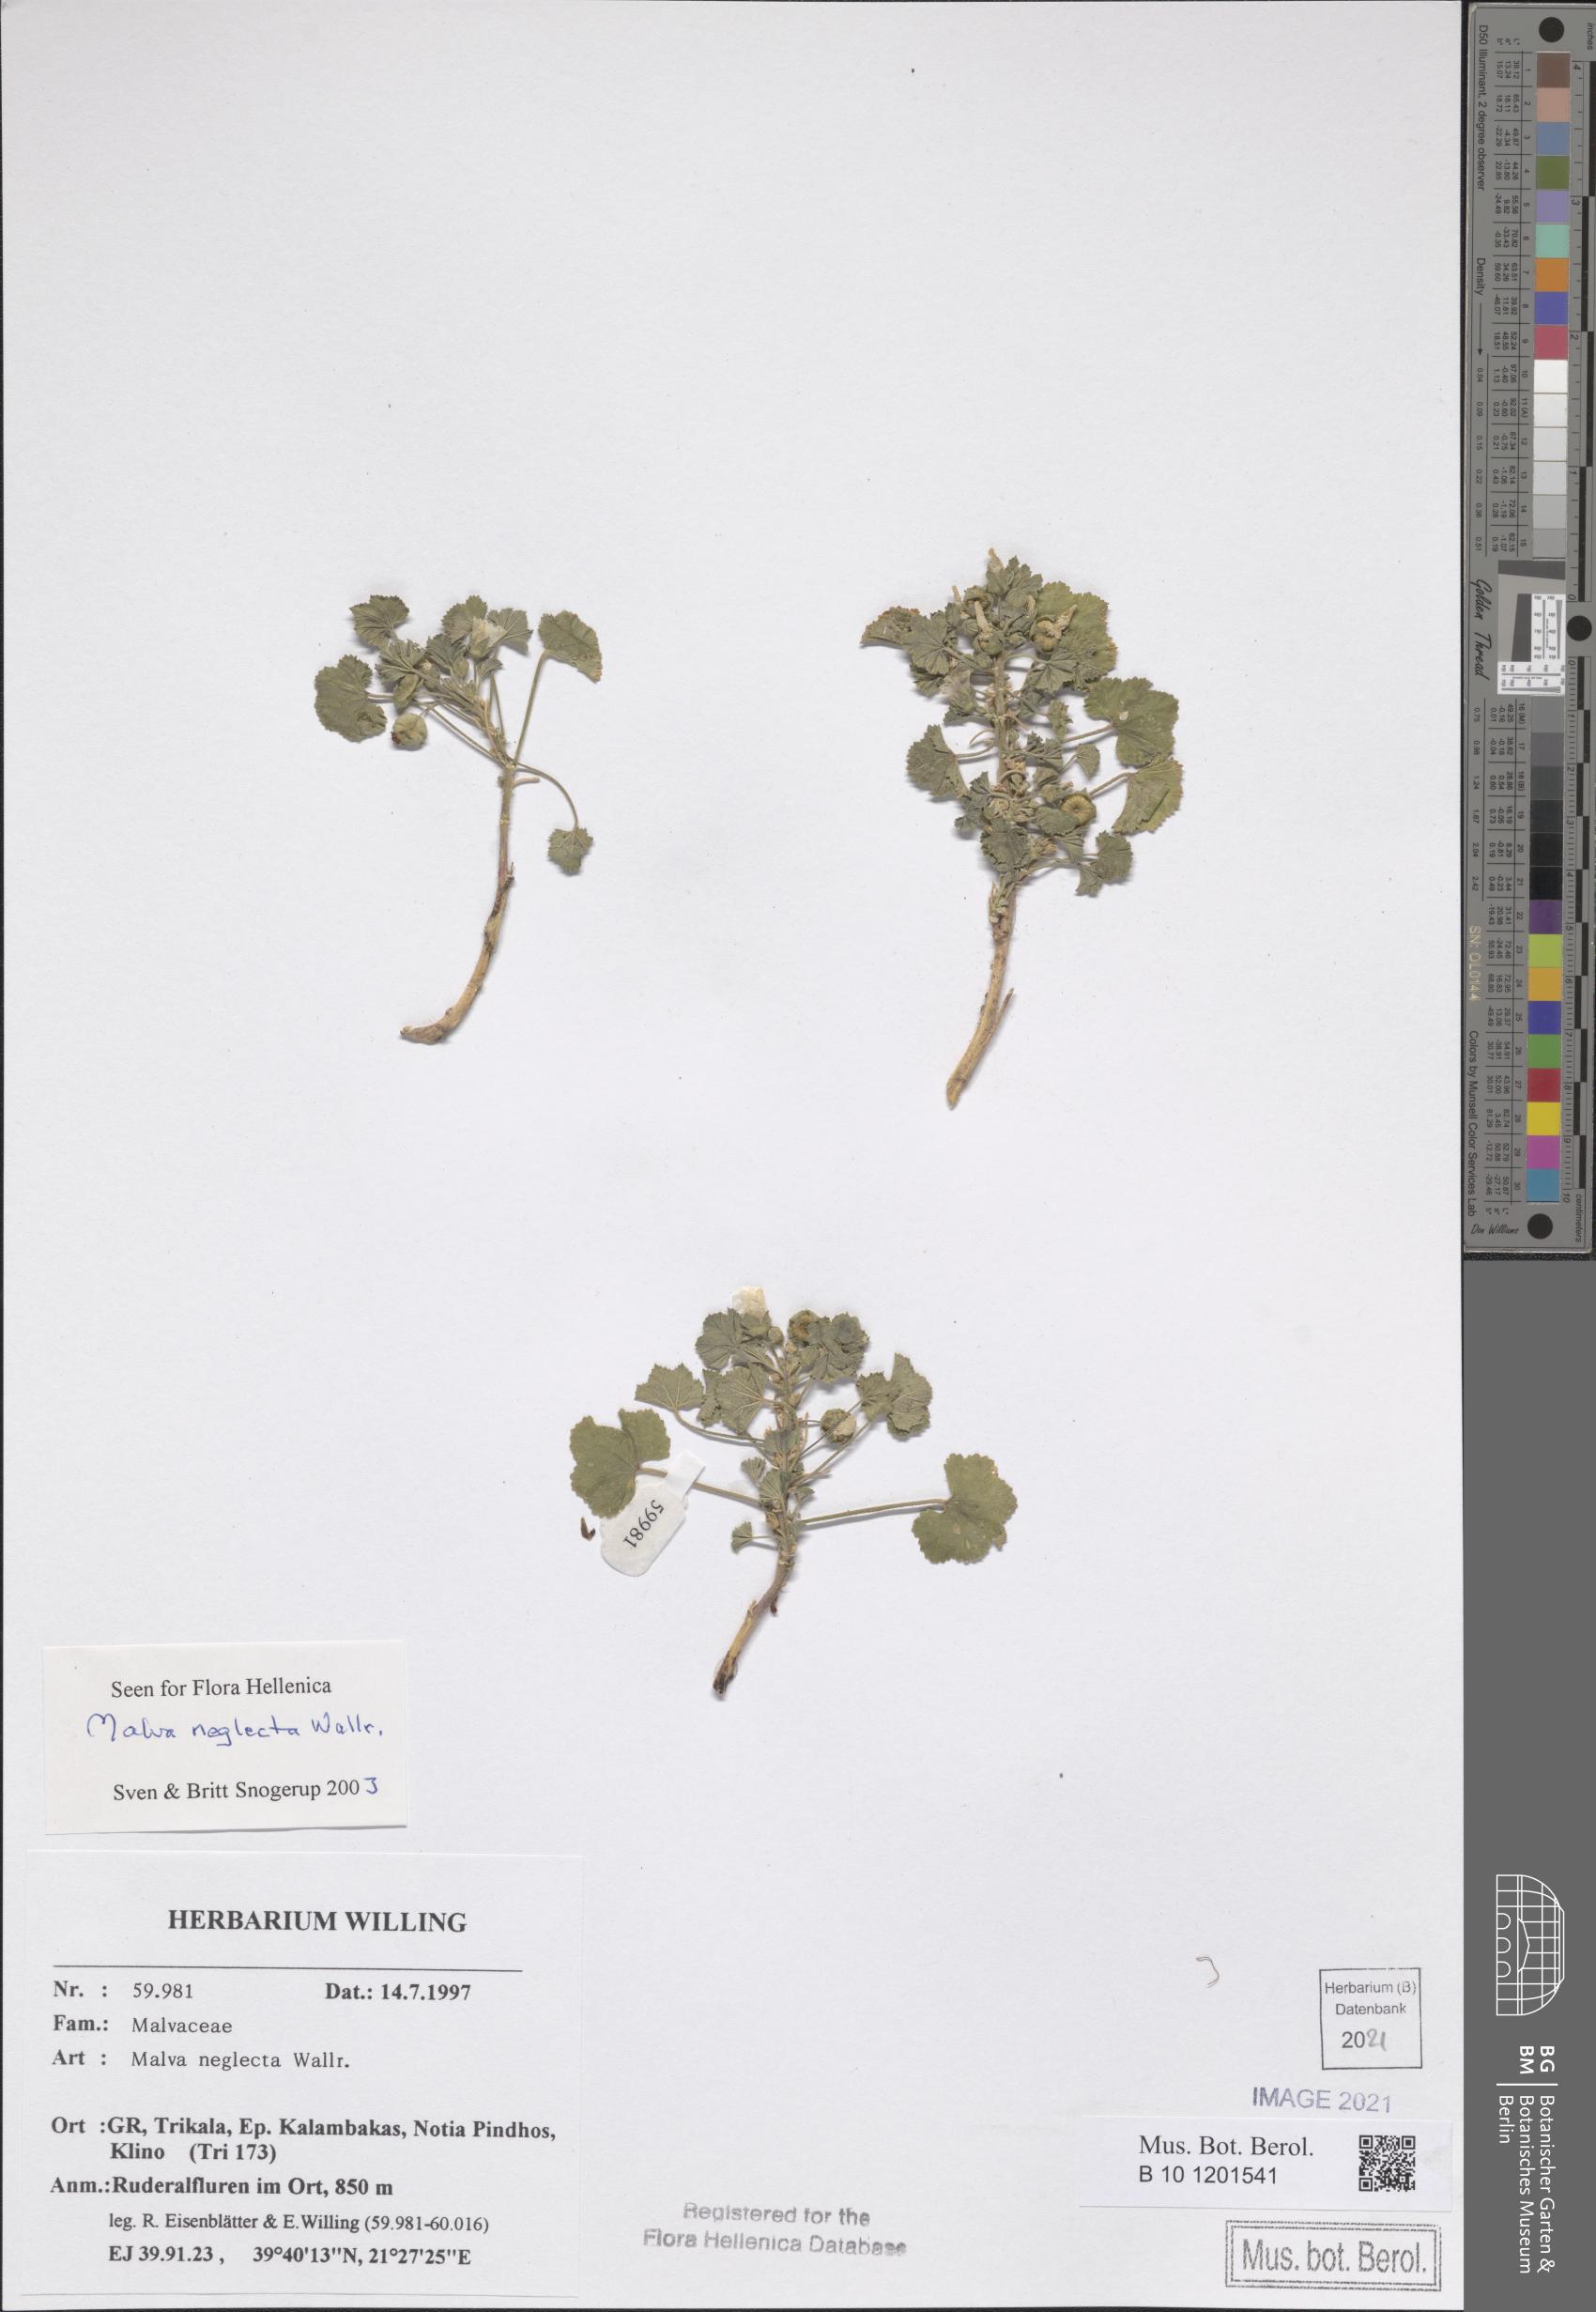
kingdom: Plantae
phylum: Tracheophyta
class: Magnoliopsida
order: Malvales
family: Malvaceae
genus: Malva
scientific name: Malva neglecta
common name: Common mallow
